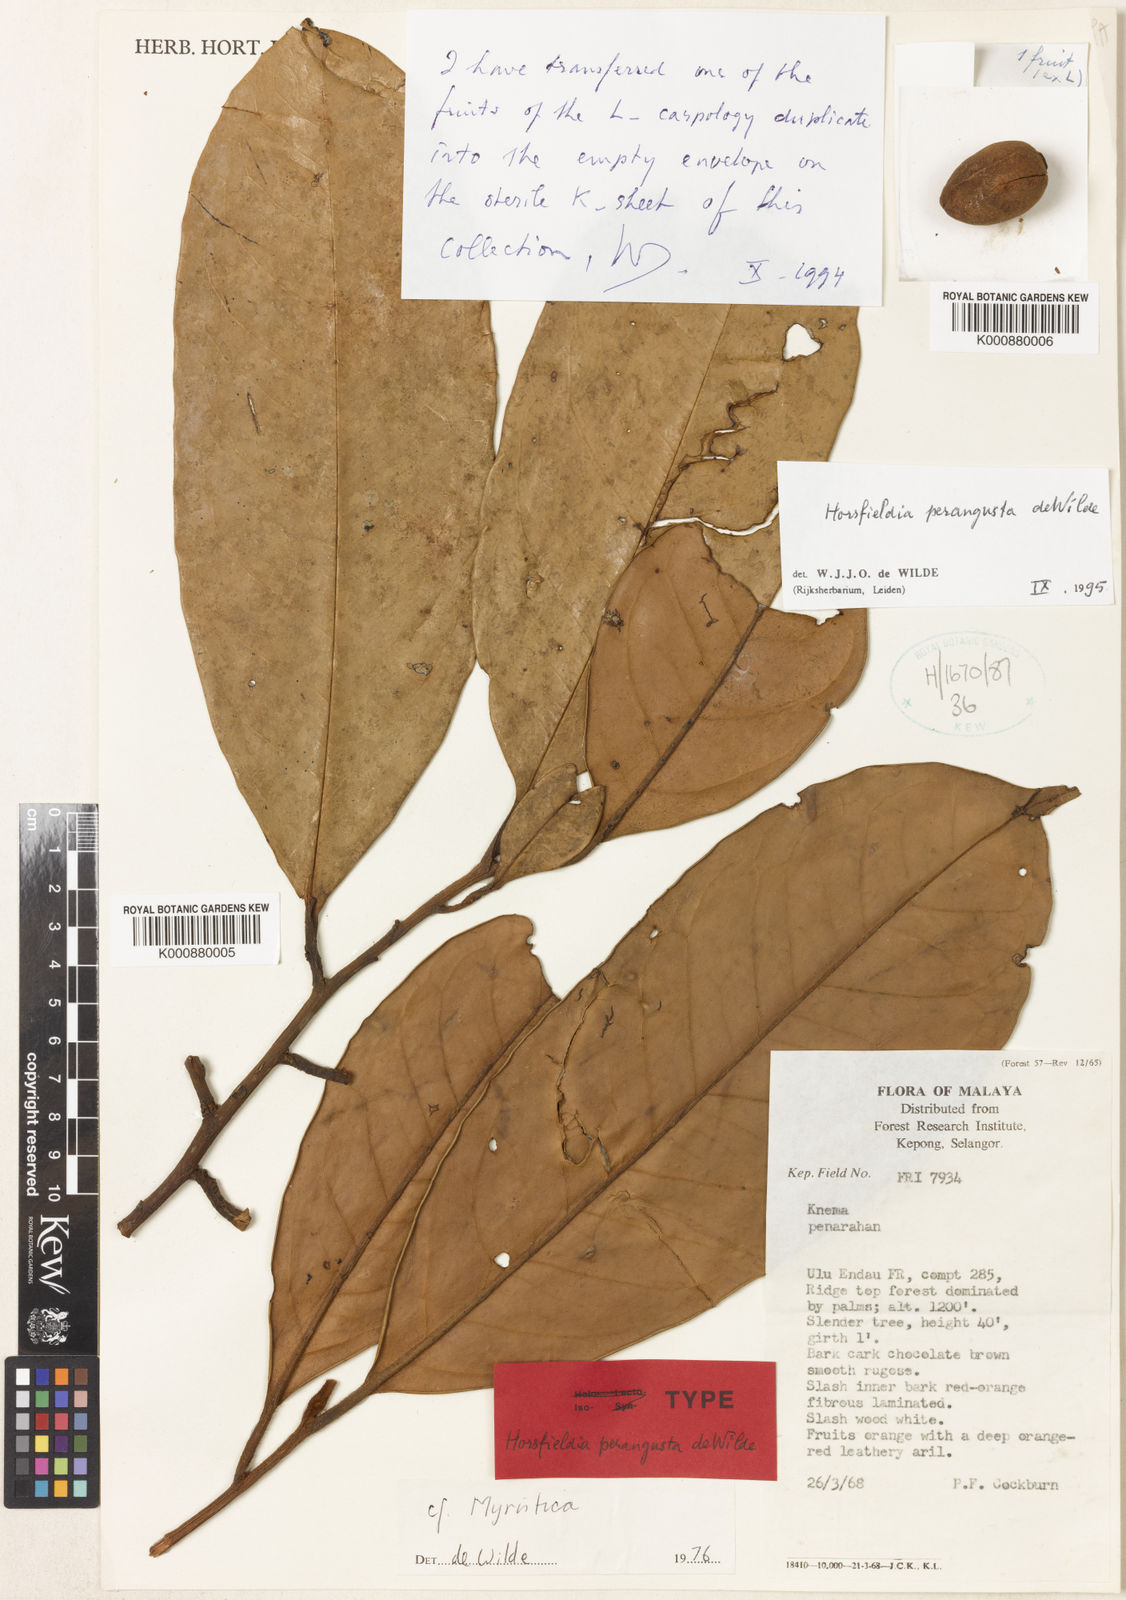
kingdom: Plantae
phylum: Tracheophyta
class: Magnoliopsida
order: Magnoliales
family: Myristicaceae
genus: Horsfieldia
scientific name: Horsfieldia polyspherula
